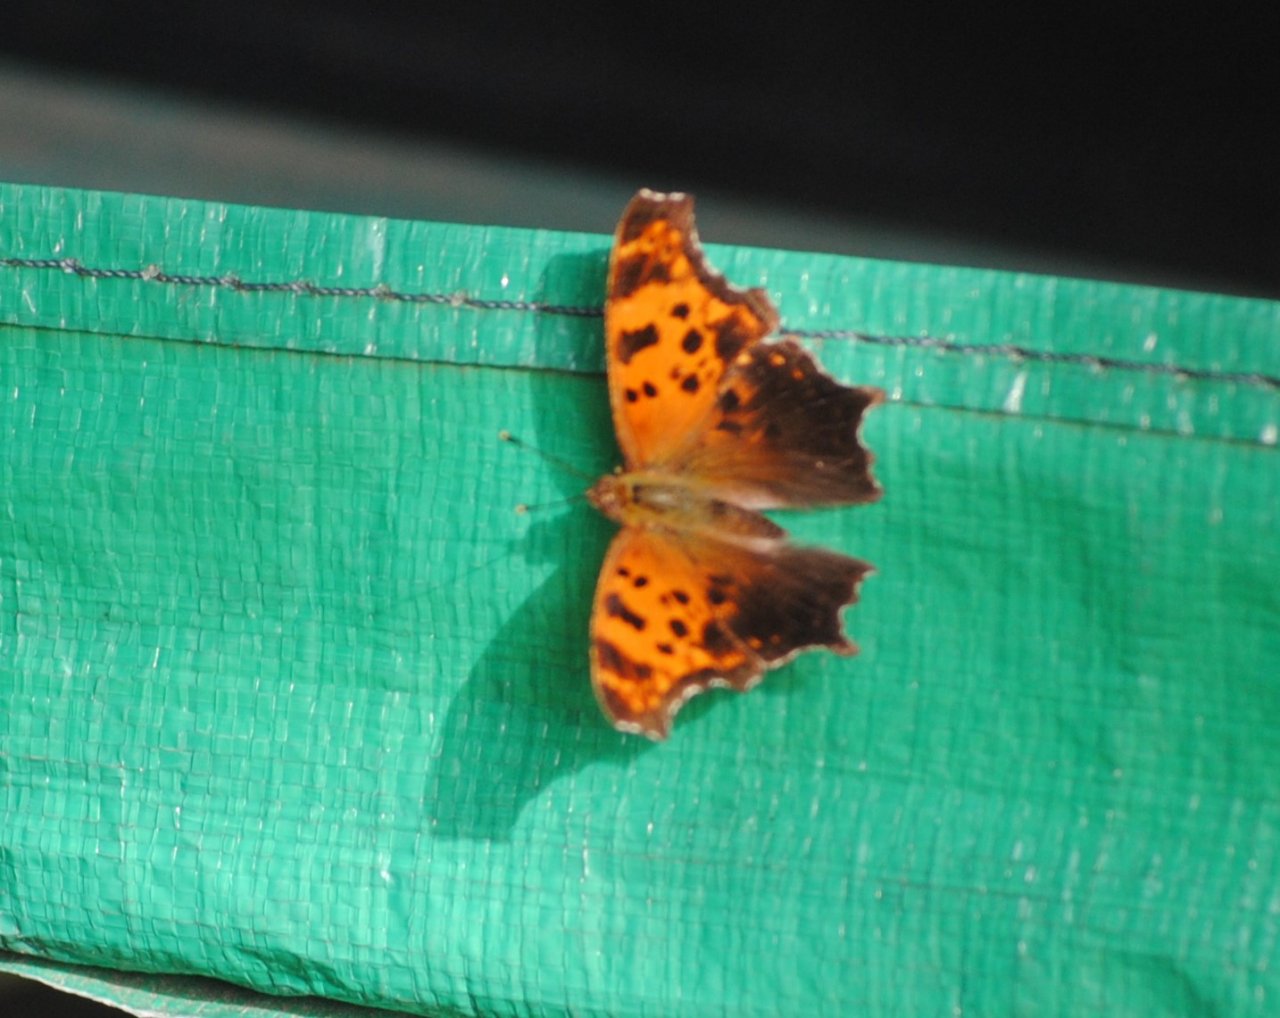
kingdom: Animalia
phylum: Arthropoda
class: Insecta
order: Lepidoptera
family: Nymphalidae
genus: Polygonia
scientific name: Polygonia comma
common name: Eastern Comma
